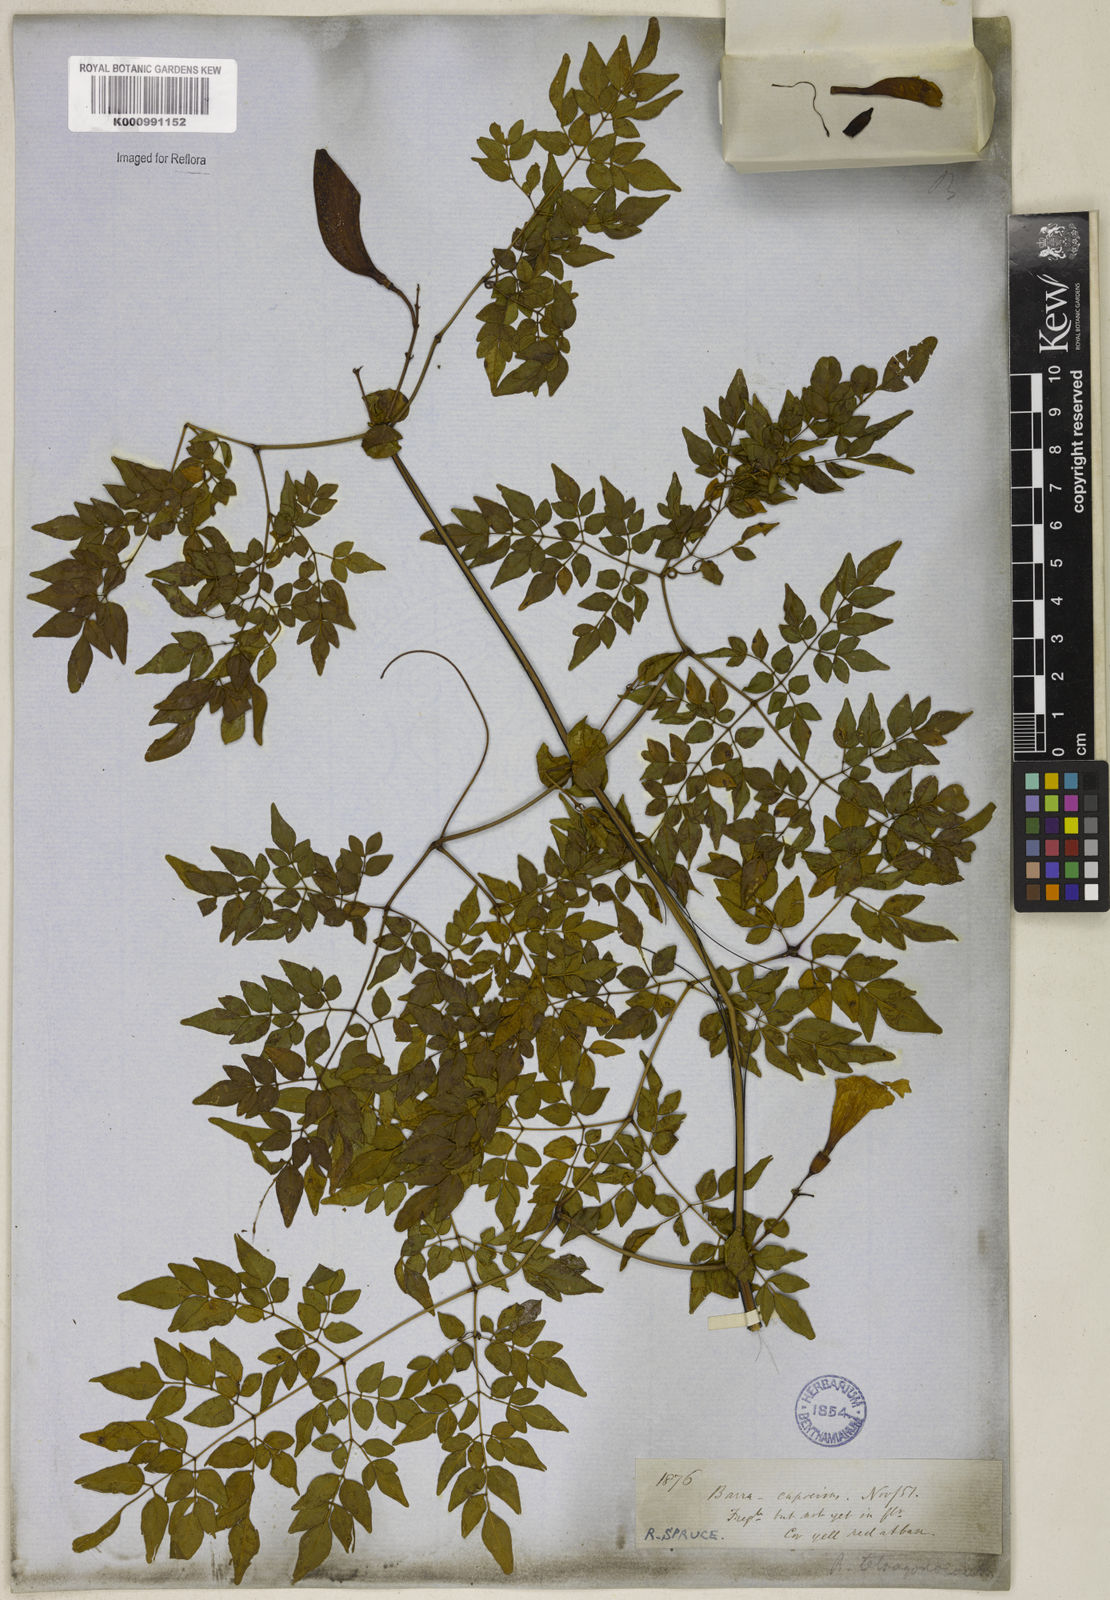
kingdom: Plantae
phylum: Tracheophyta
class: Magnoliopsida
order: Lamiales
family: Bignoniaceae
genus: Pleonotoma
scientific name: Pleonotoma jasminifolia
